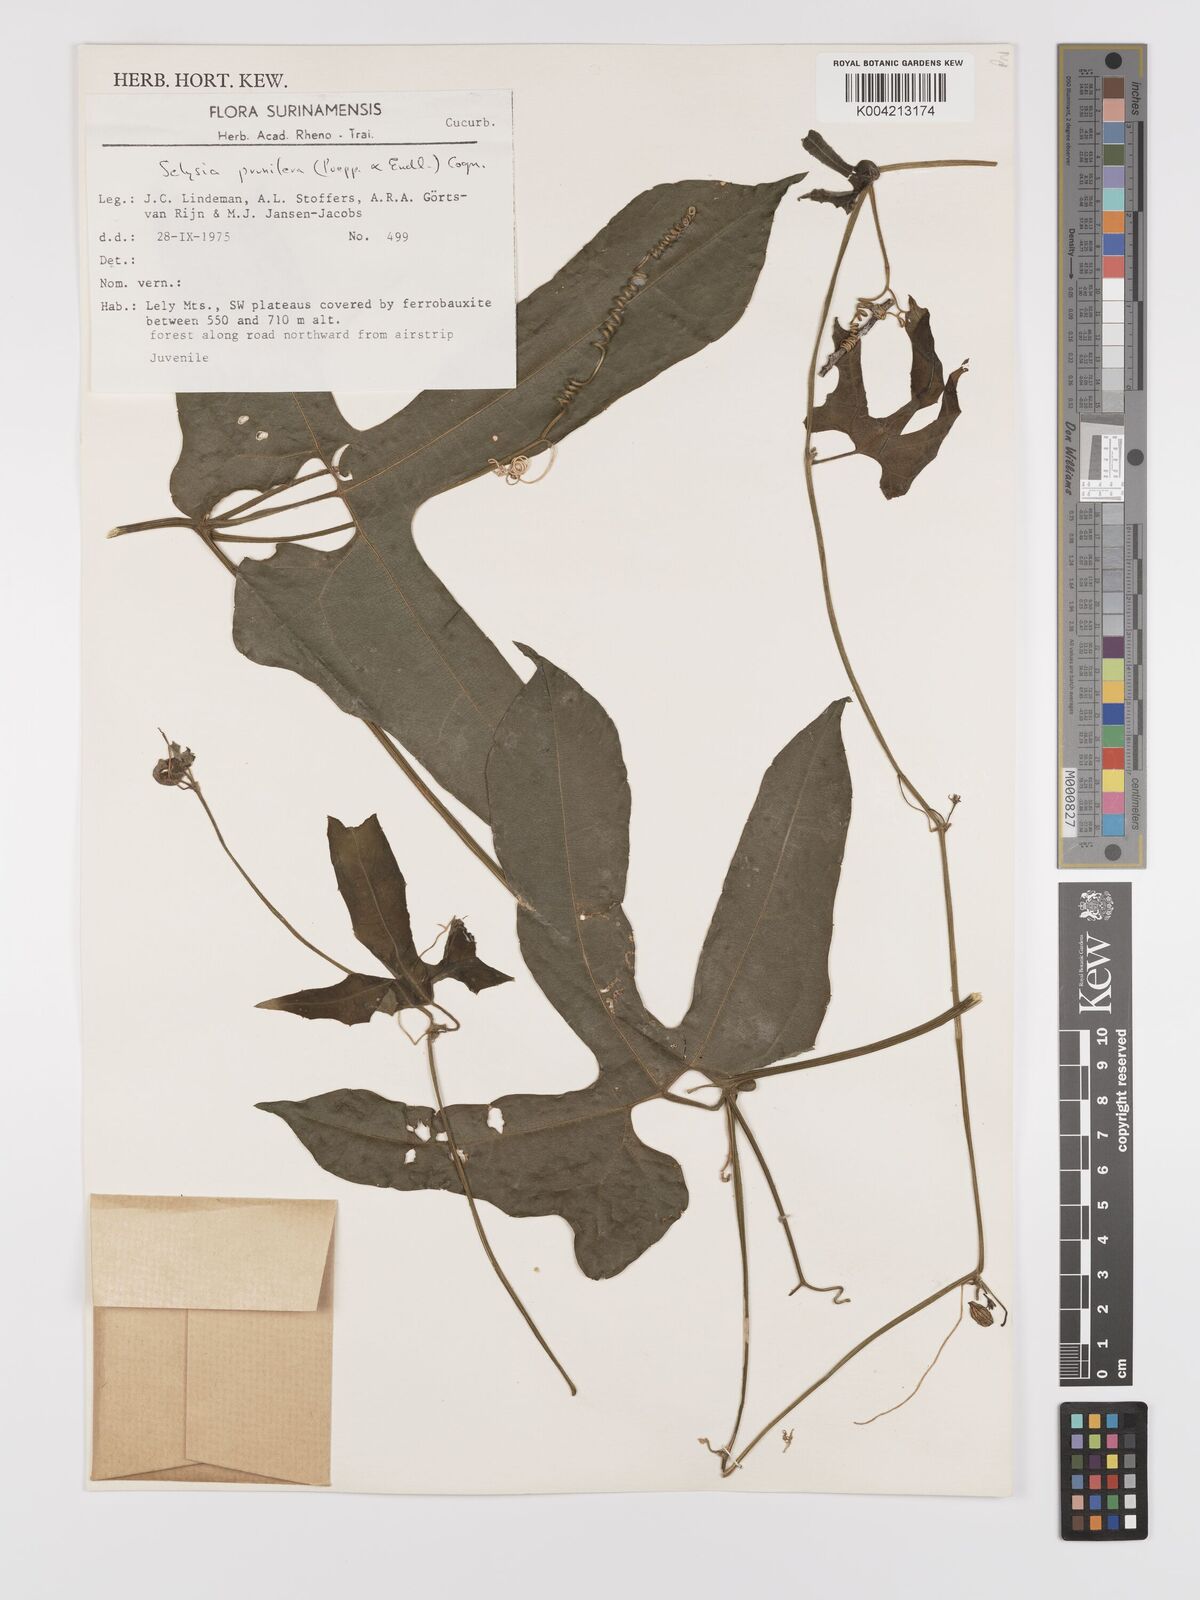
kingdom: Plantae
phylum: Tracheophyta
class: Magnoliopsida
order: Cucurbitales
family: Cucurbitaceae
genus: Cayaponia
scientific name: Cayaponia prunifera
